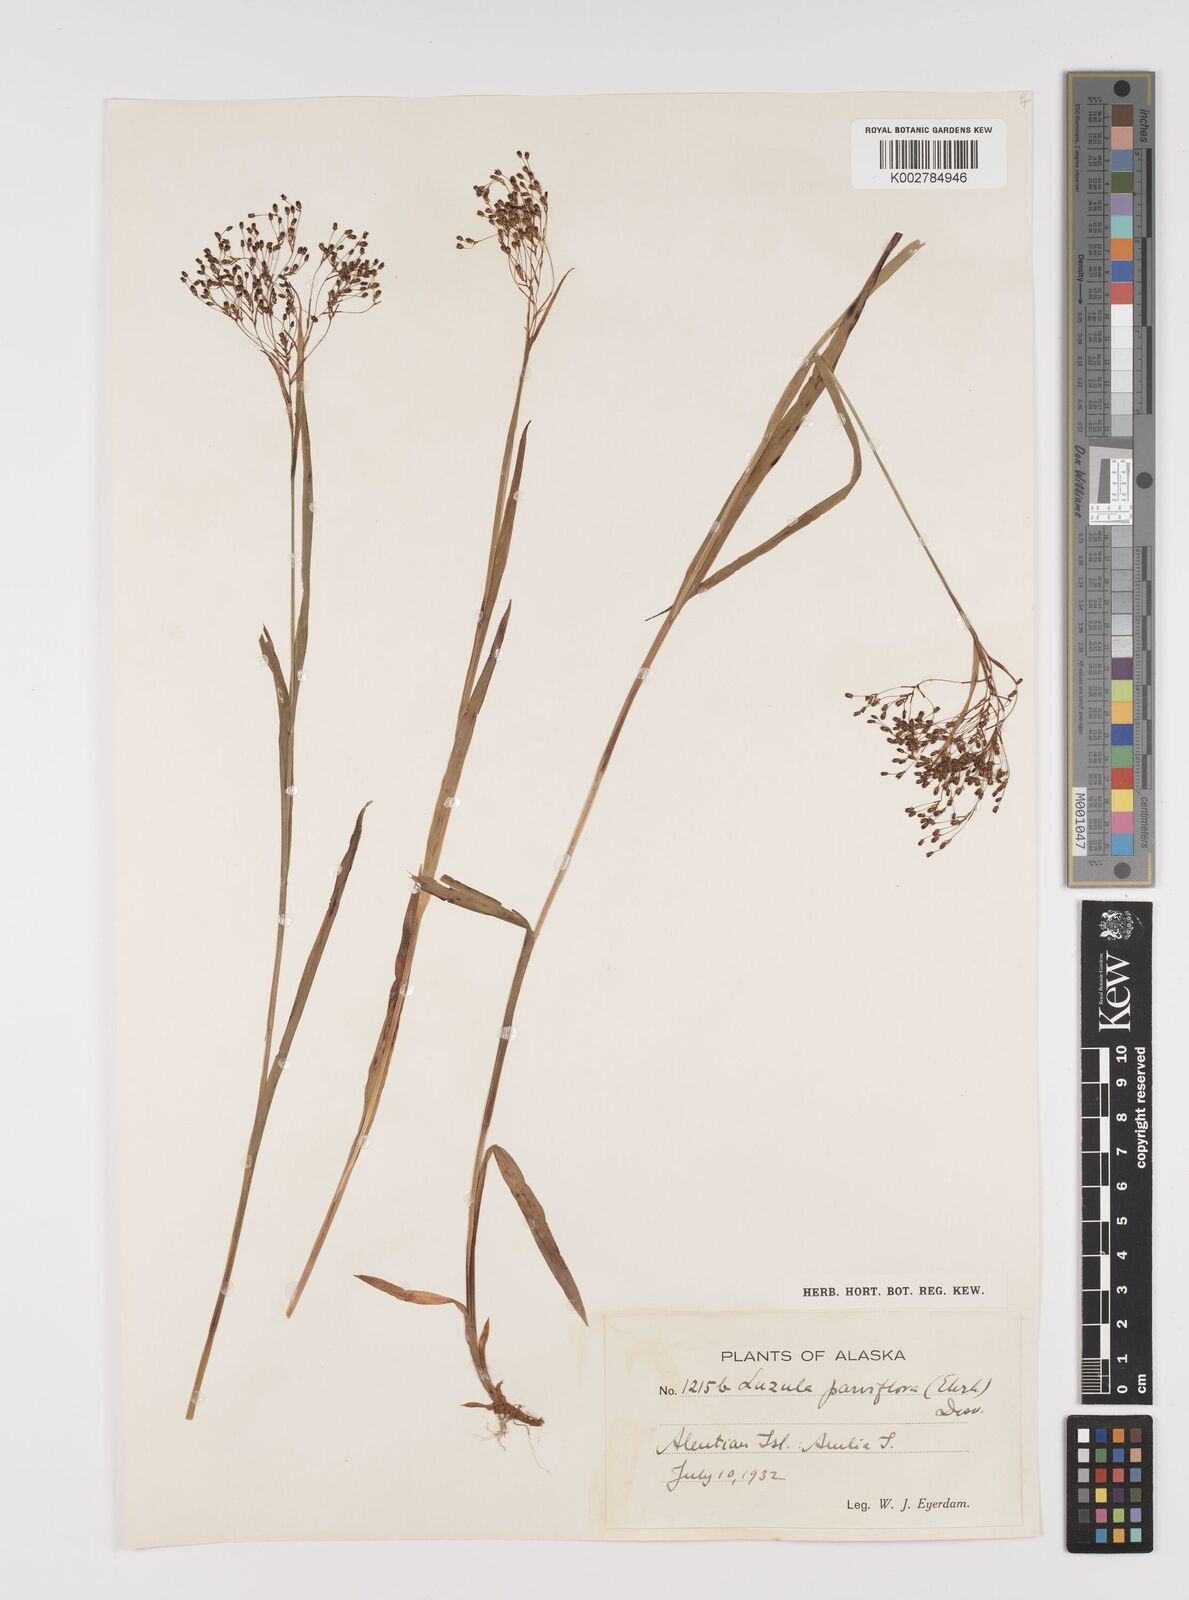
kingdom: Plantae
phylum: Tracheophyta
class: Liliopsida
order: Poales
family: Juncaceae
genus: Luzula
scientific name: Luzula parviflora
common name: Millet woodrush
